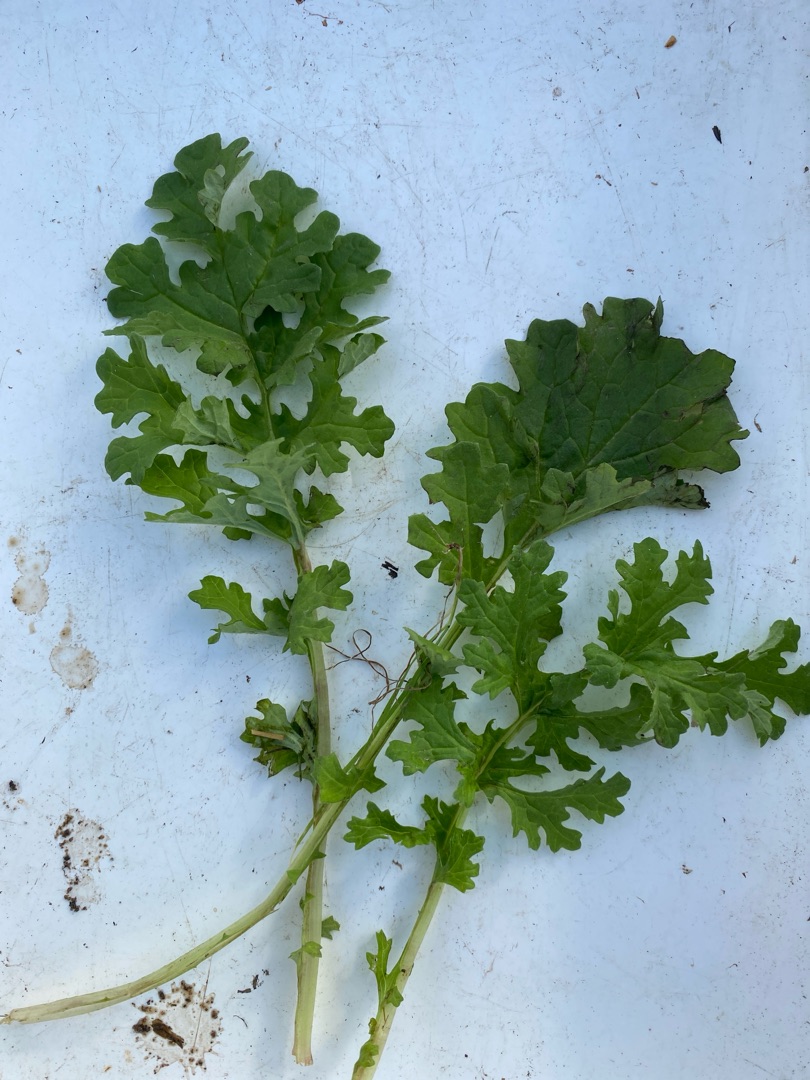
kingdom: Plantae
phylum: Tracheophyta
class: Magnoliopsida
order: Asterales
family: Asteraceae
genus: Jacobaea
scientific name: Jacobaea vulgaris
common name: Eng-brandbæger
